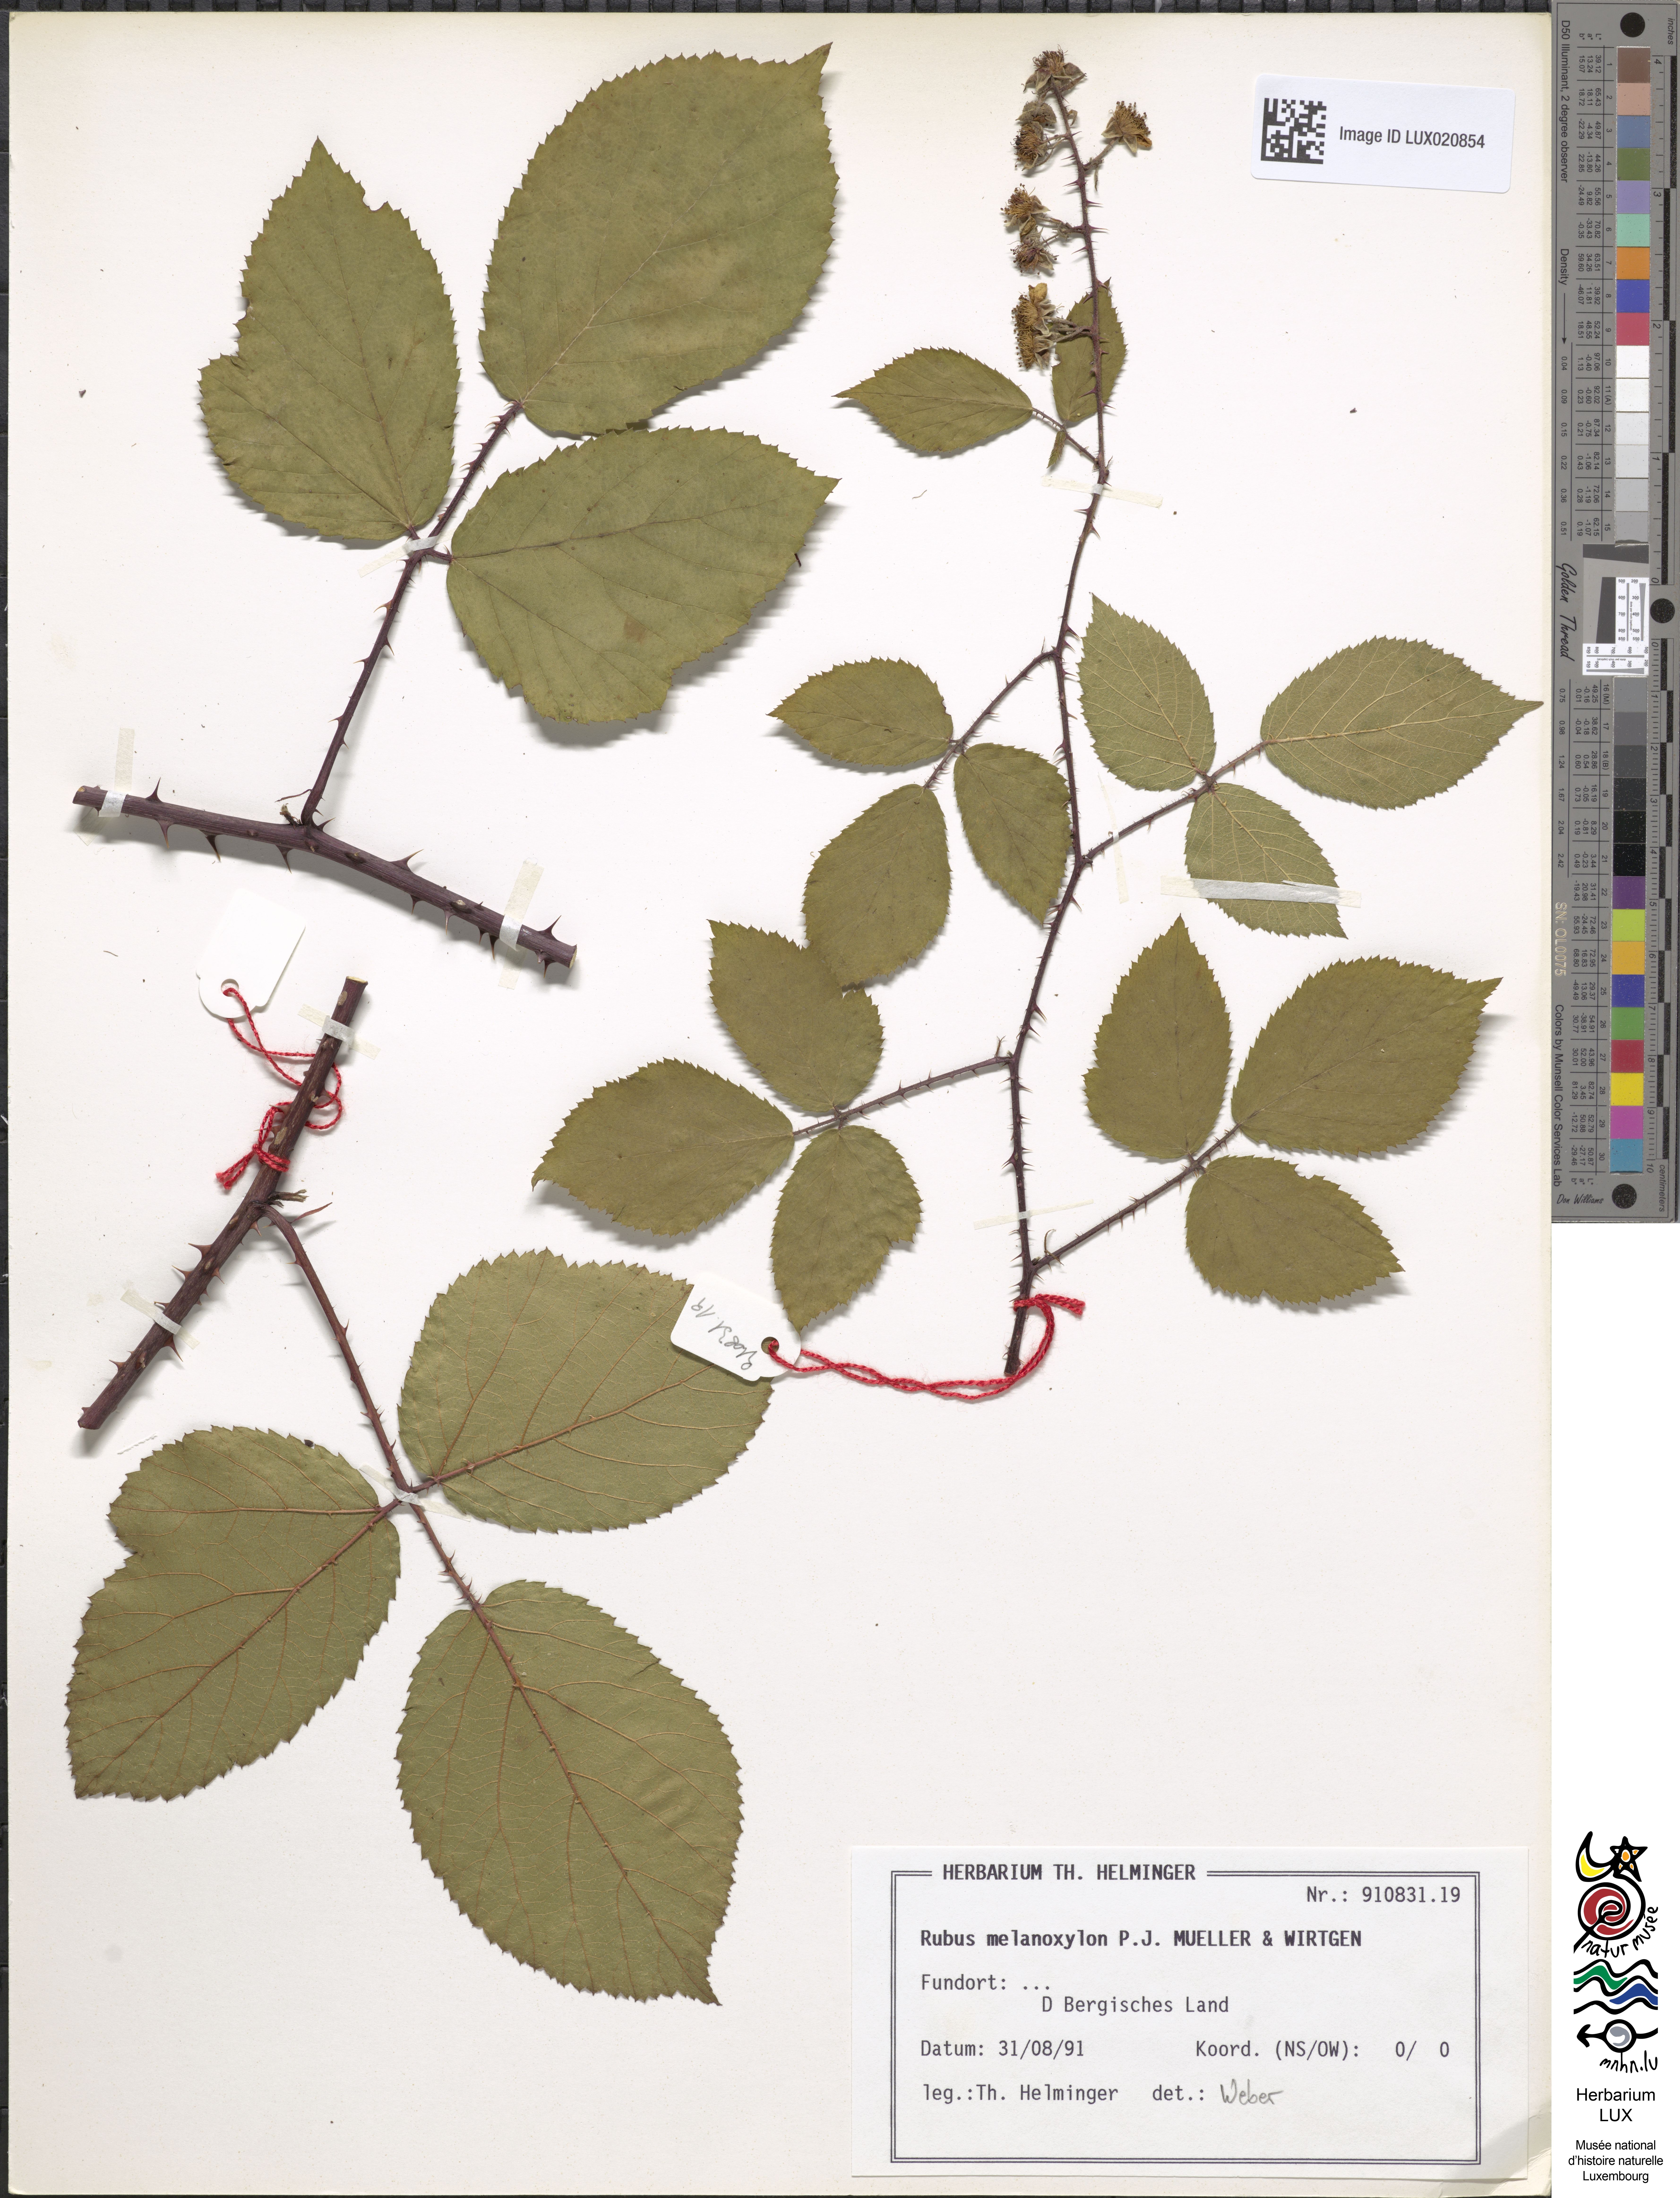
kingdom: Plantae
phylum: Tracheophyta
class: Magnoliopsida
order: Rosales
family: Rosaceae
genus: Rubus
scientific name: Rubus melanoxylon
